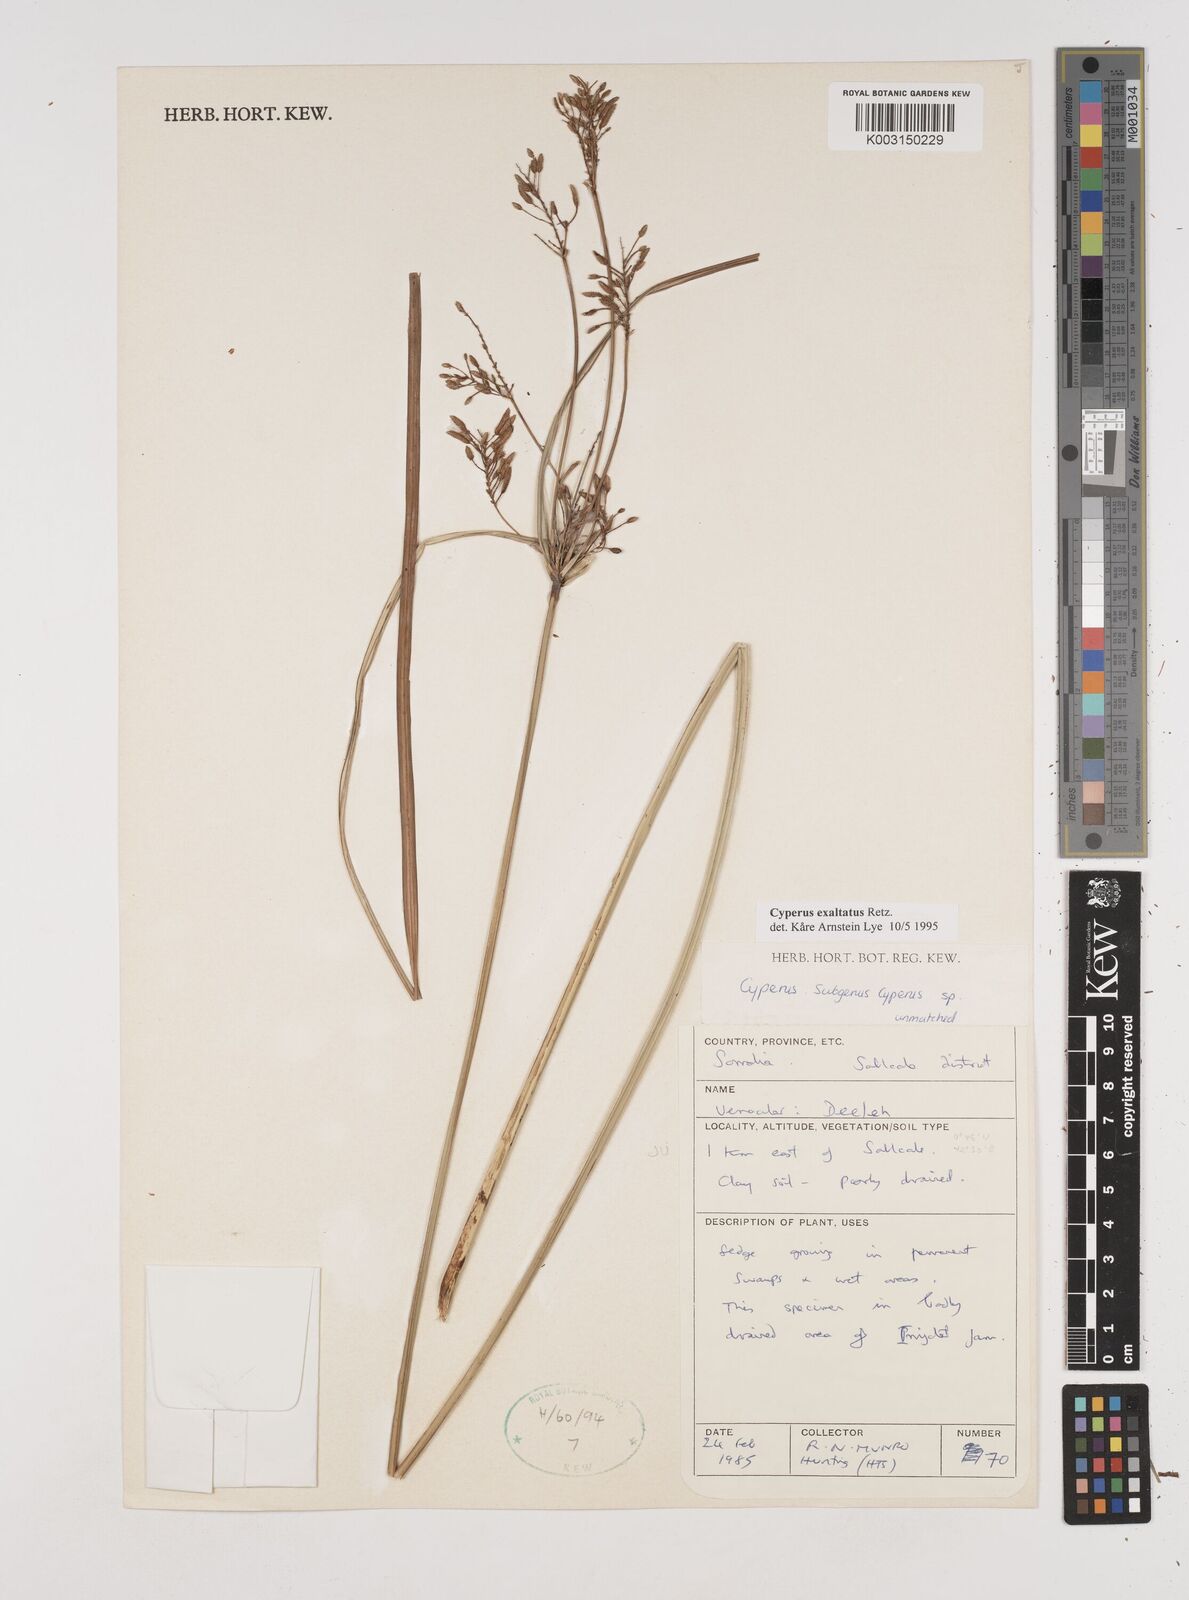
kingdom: Plantae
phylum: Tracheophyta
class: Liliopsida
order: Poales
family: Cyperaceae
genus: Cyperus
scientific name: Cyperus exaltatus
